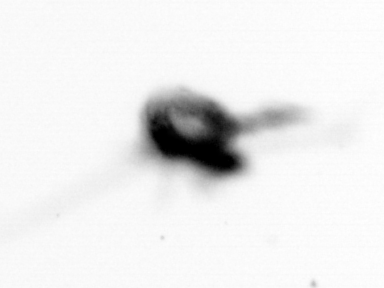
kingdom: Animalia
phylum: Arthropoda
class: Copepoda
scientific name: Copepoda
